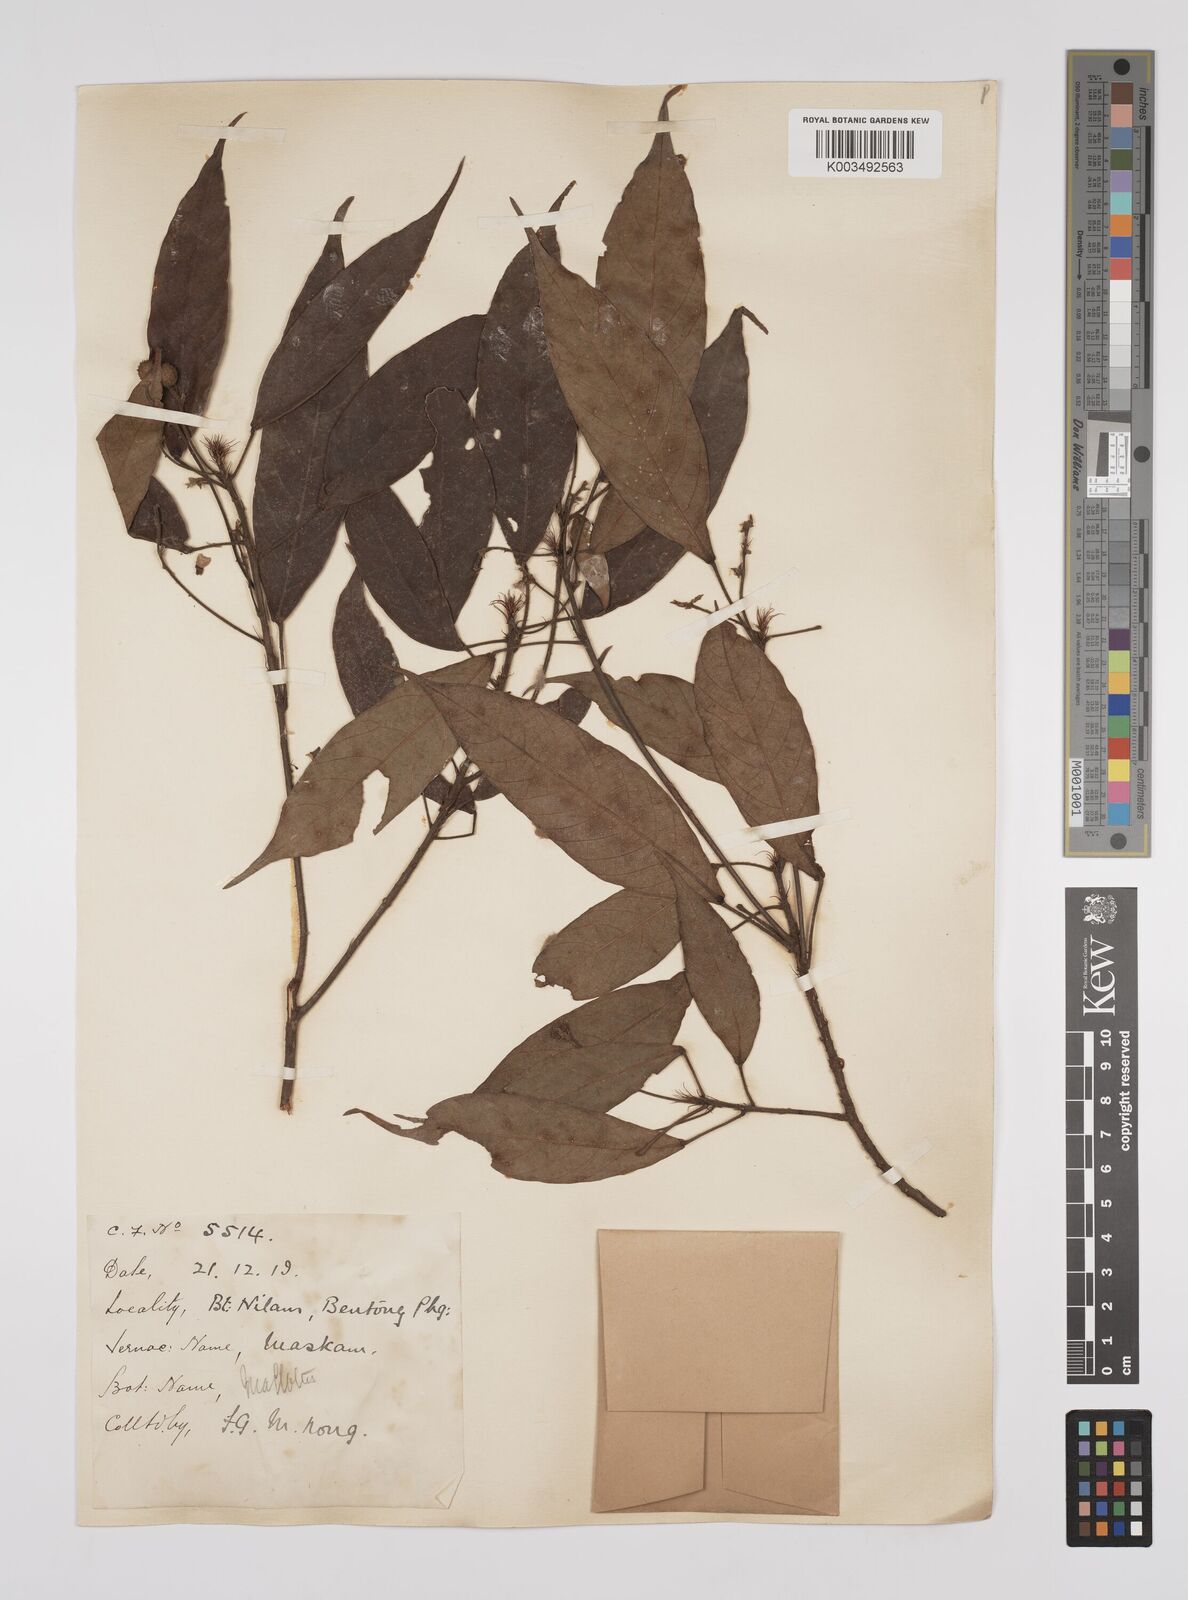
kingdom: Plantae
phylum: Tracheophyta
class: Magnoliopsida
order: Malpighiales
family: Euphorbiaceae
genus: Macaranga
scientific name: Macaranga lowii
